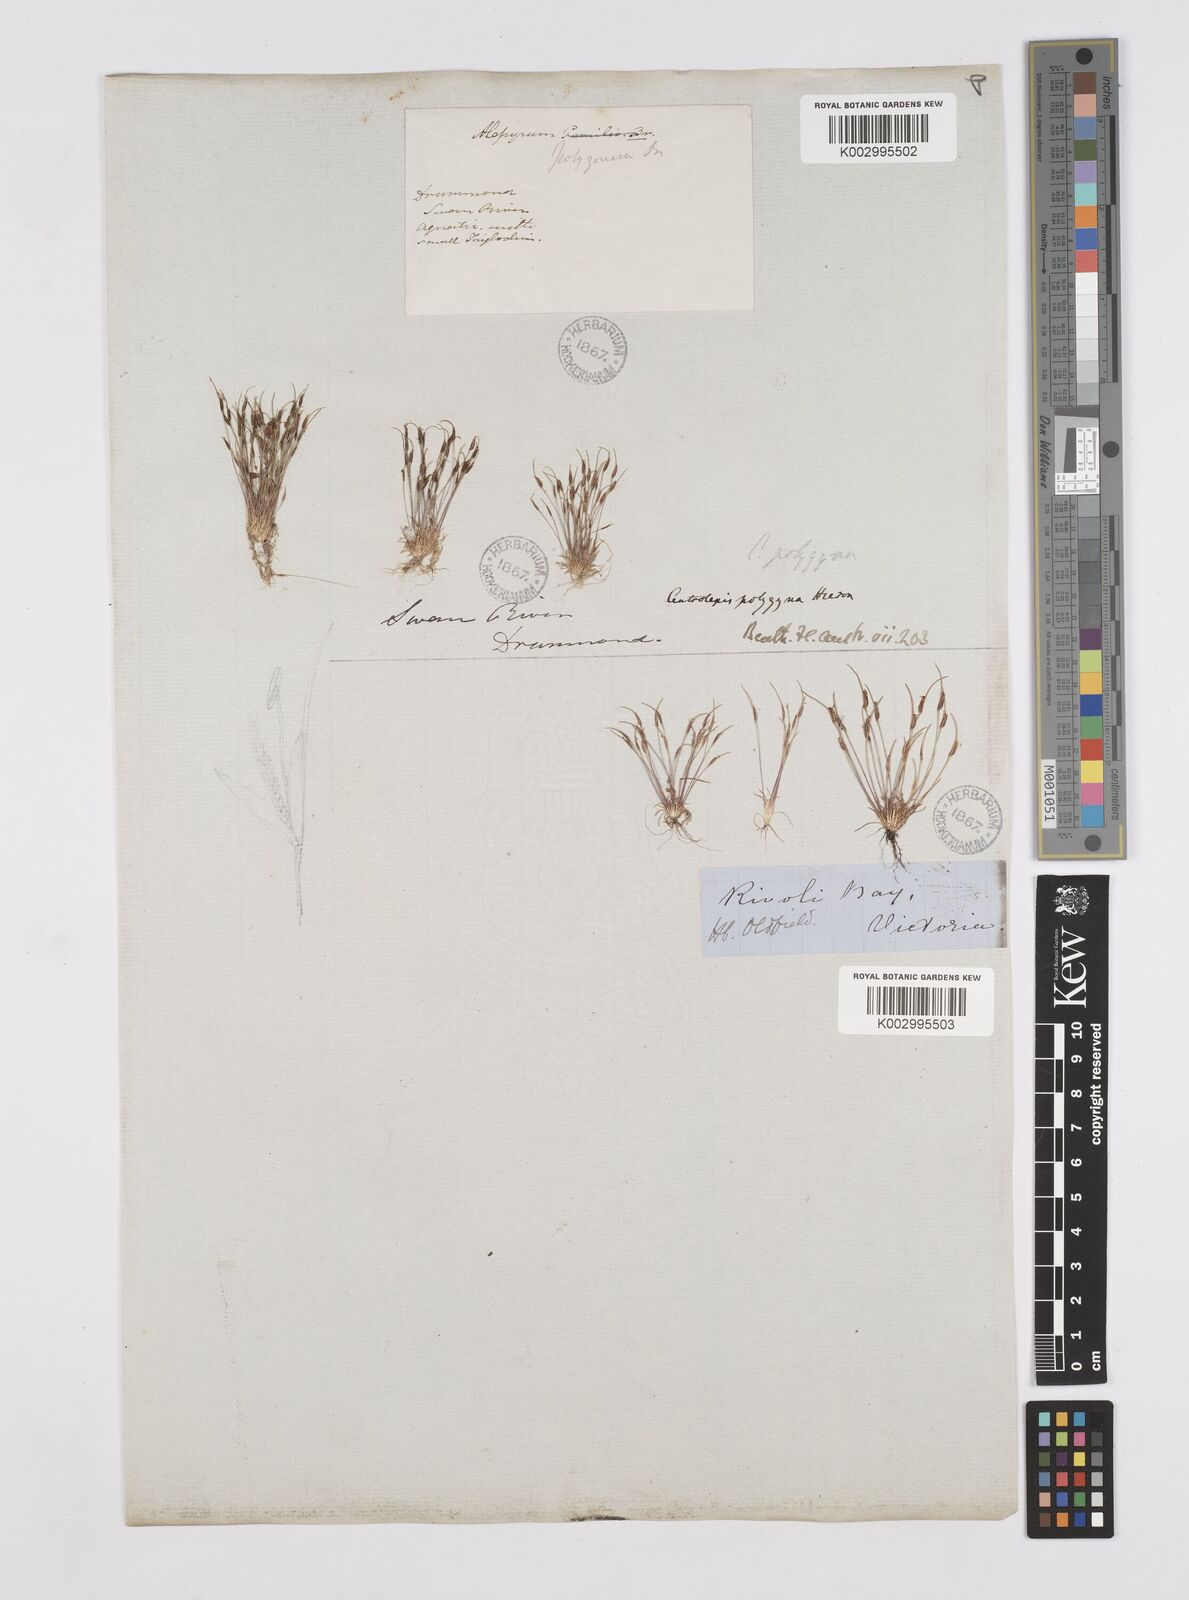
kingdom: Plantae
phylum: Tracheophyta
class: Liliopsida
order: Poales
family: Restionaceae
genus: Centrolepis
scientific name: Centrolepis polygyna
